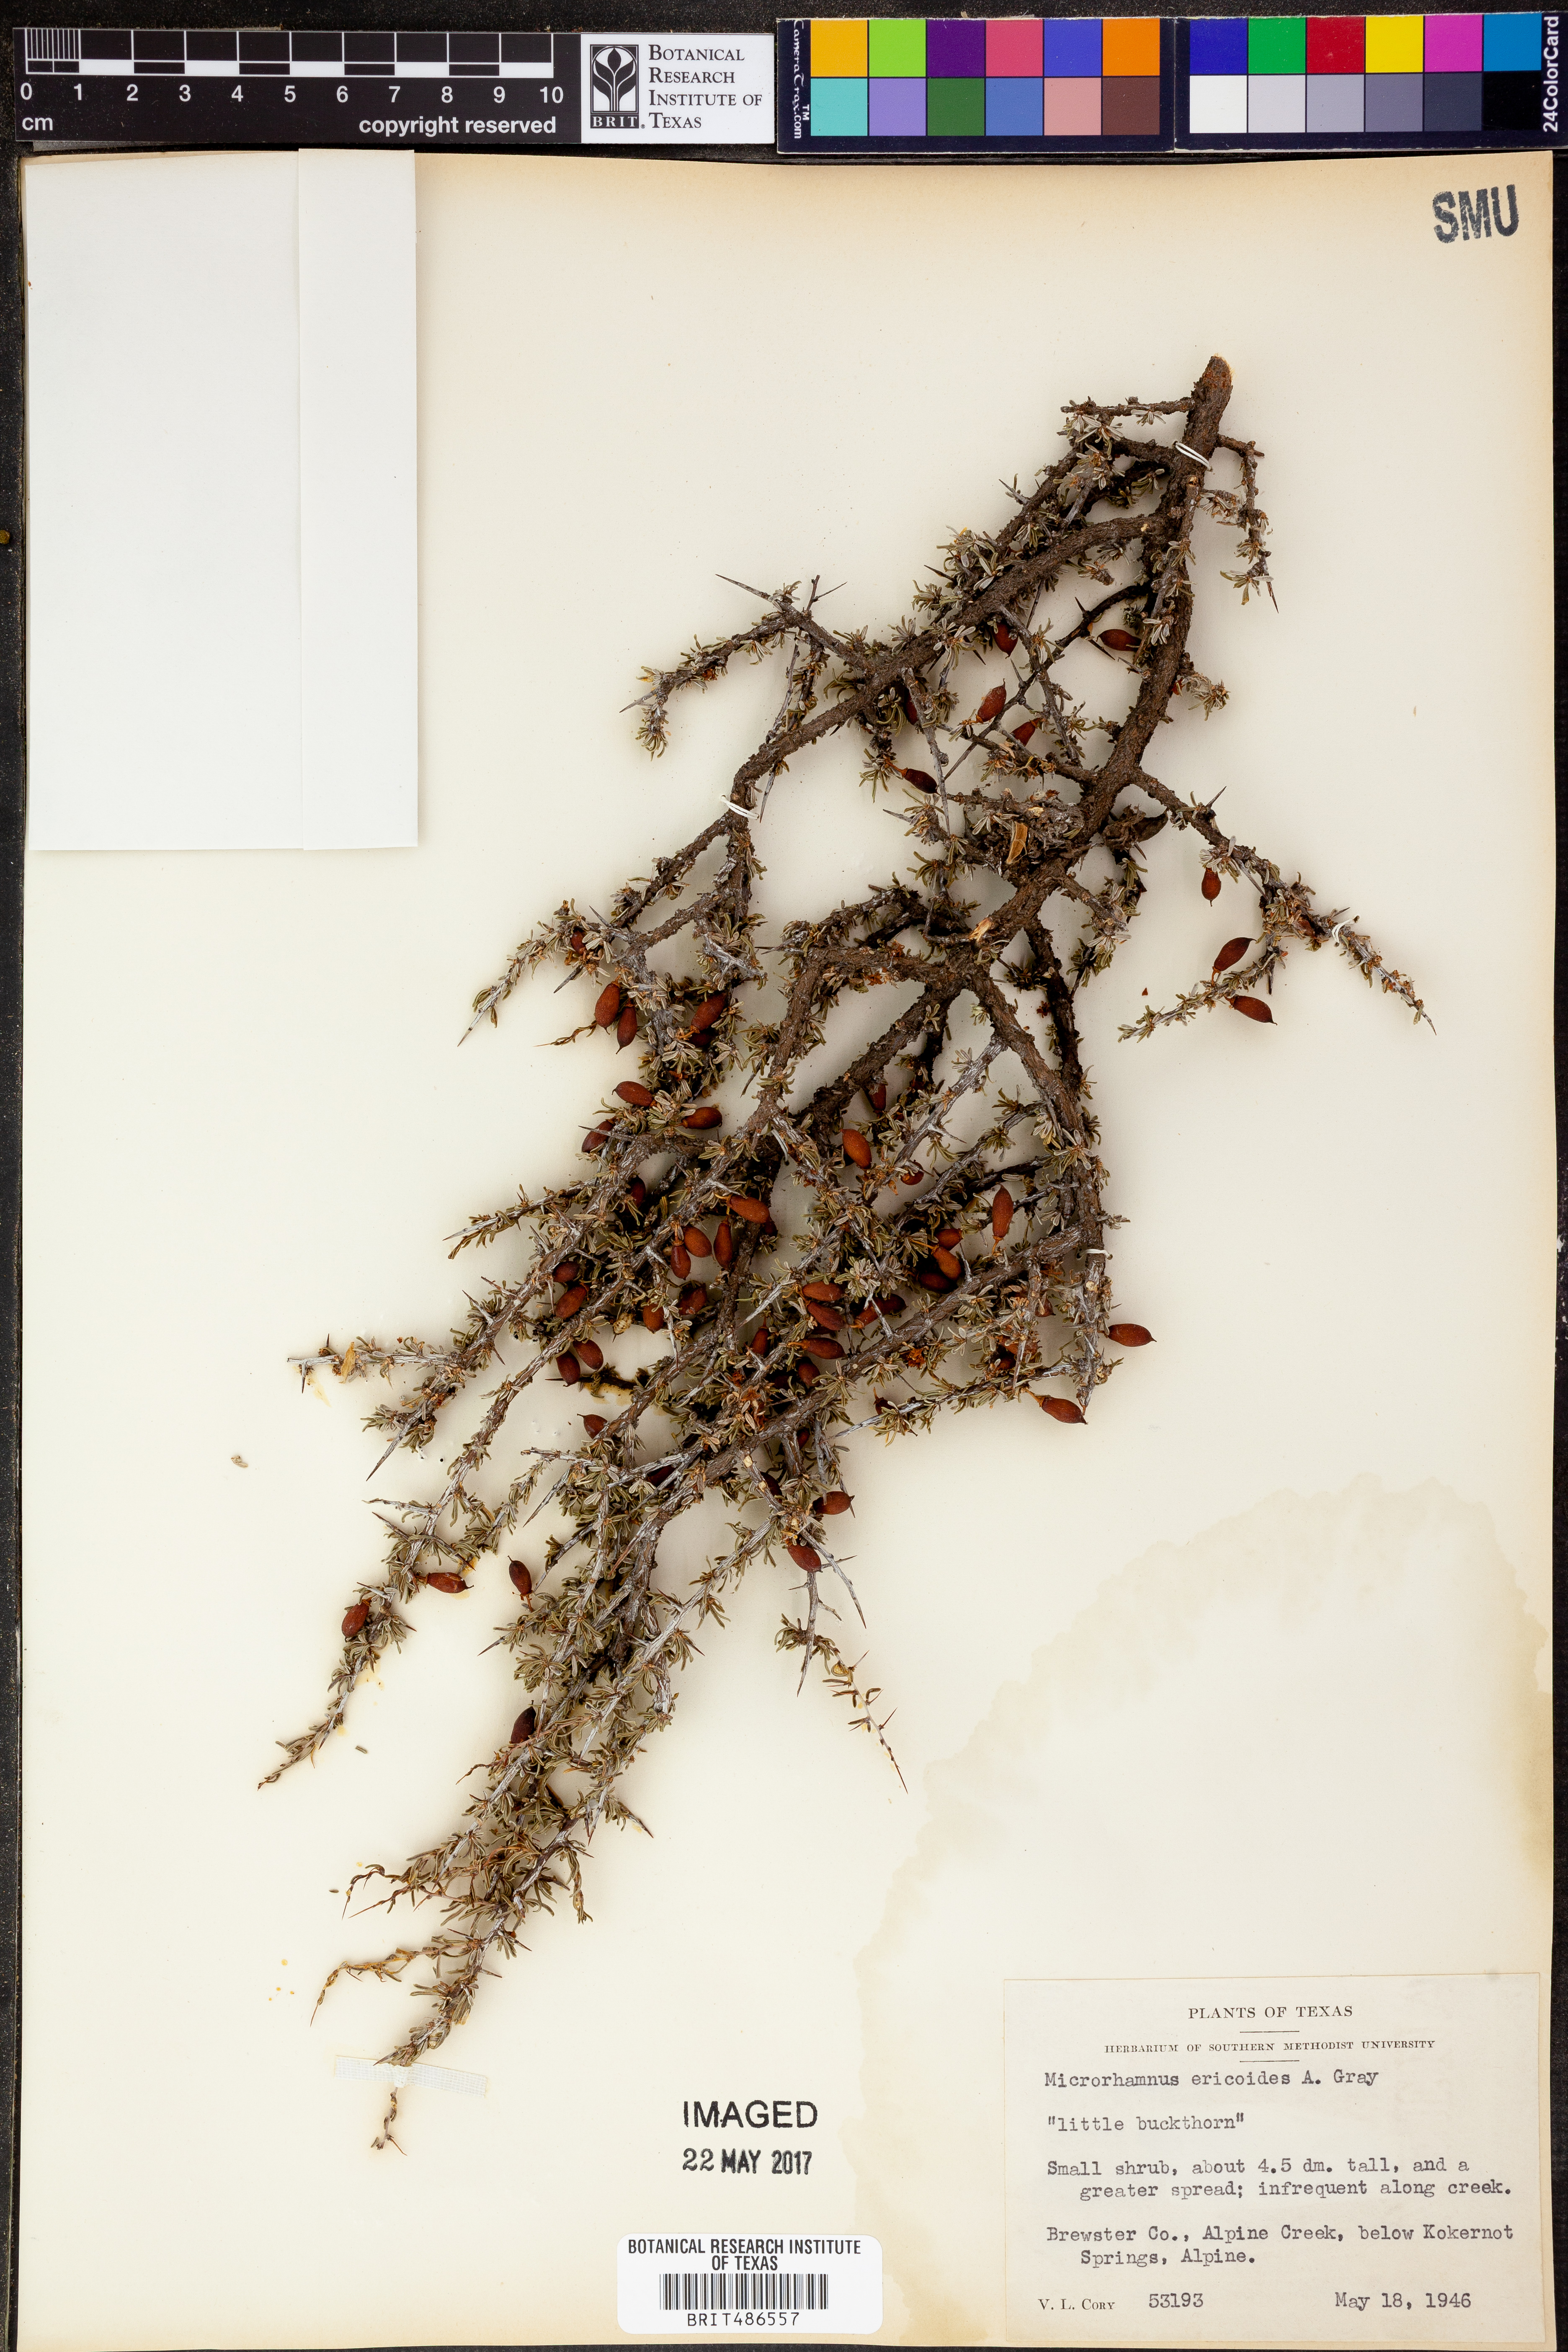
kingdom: Plantae
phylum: Tracheophyta
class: Magnoliopsida
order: Rosales
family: Rhamnaceae
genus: Condalia
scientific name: Condalia ericoides
